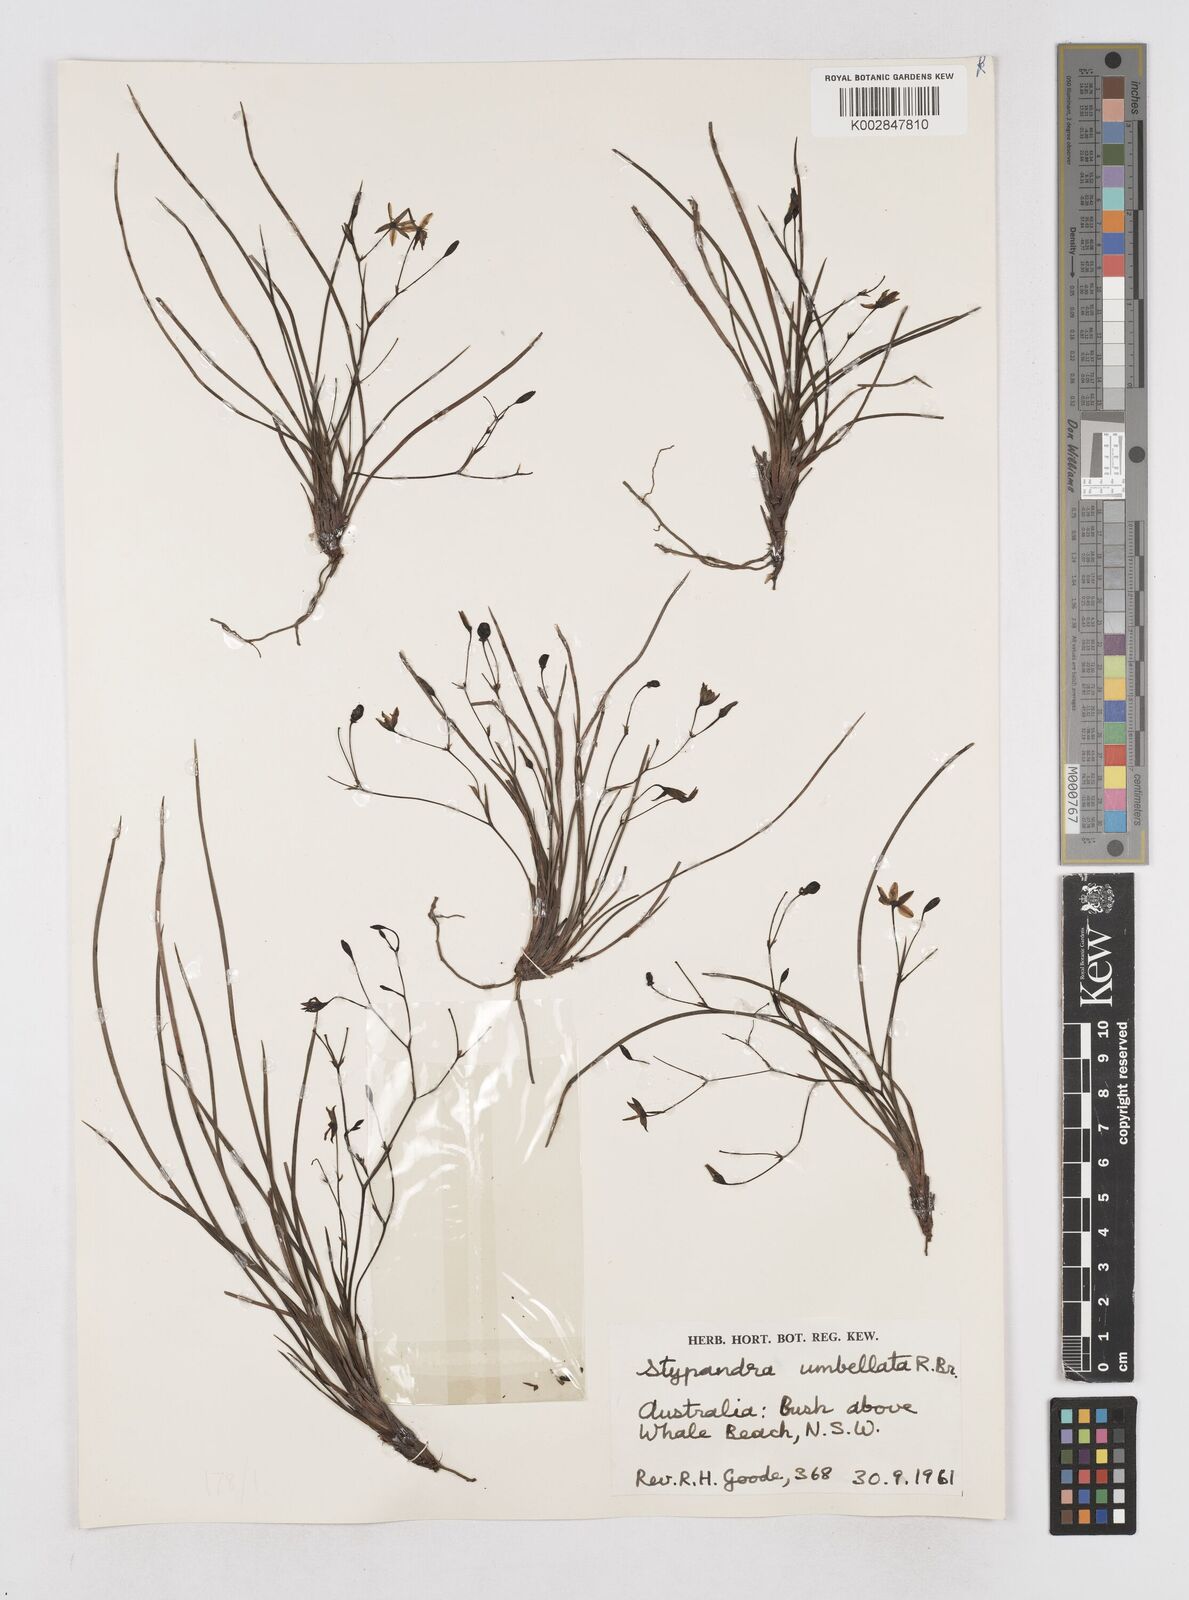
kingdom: Plantae
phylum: Tracheophyta
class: Liliopsida
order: Asparagales
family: Asphodelaceae
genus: Thelionema
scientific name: Thelionema umbellatum
